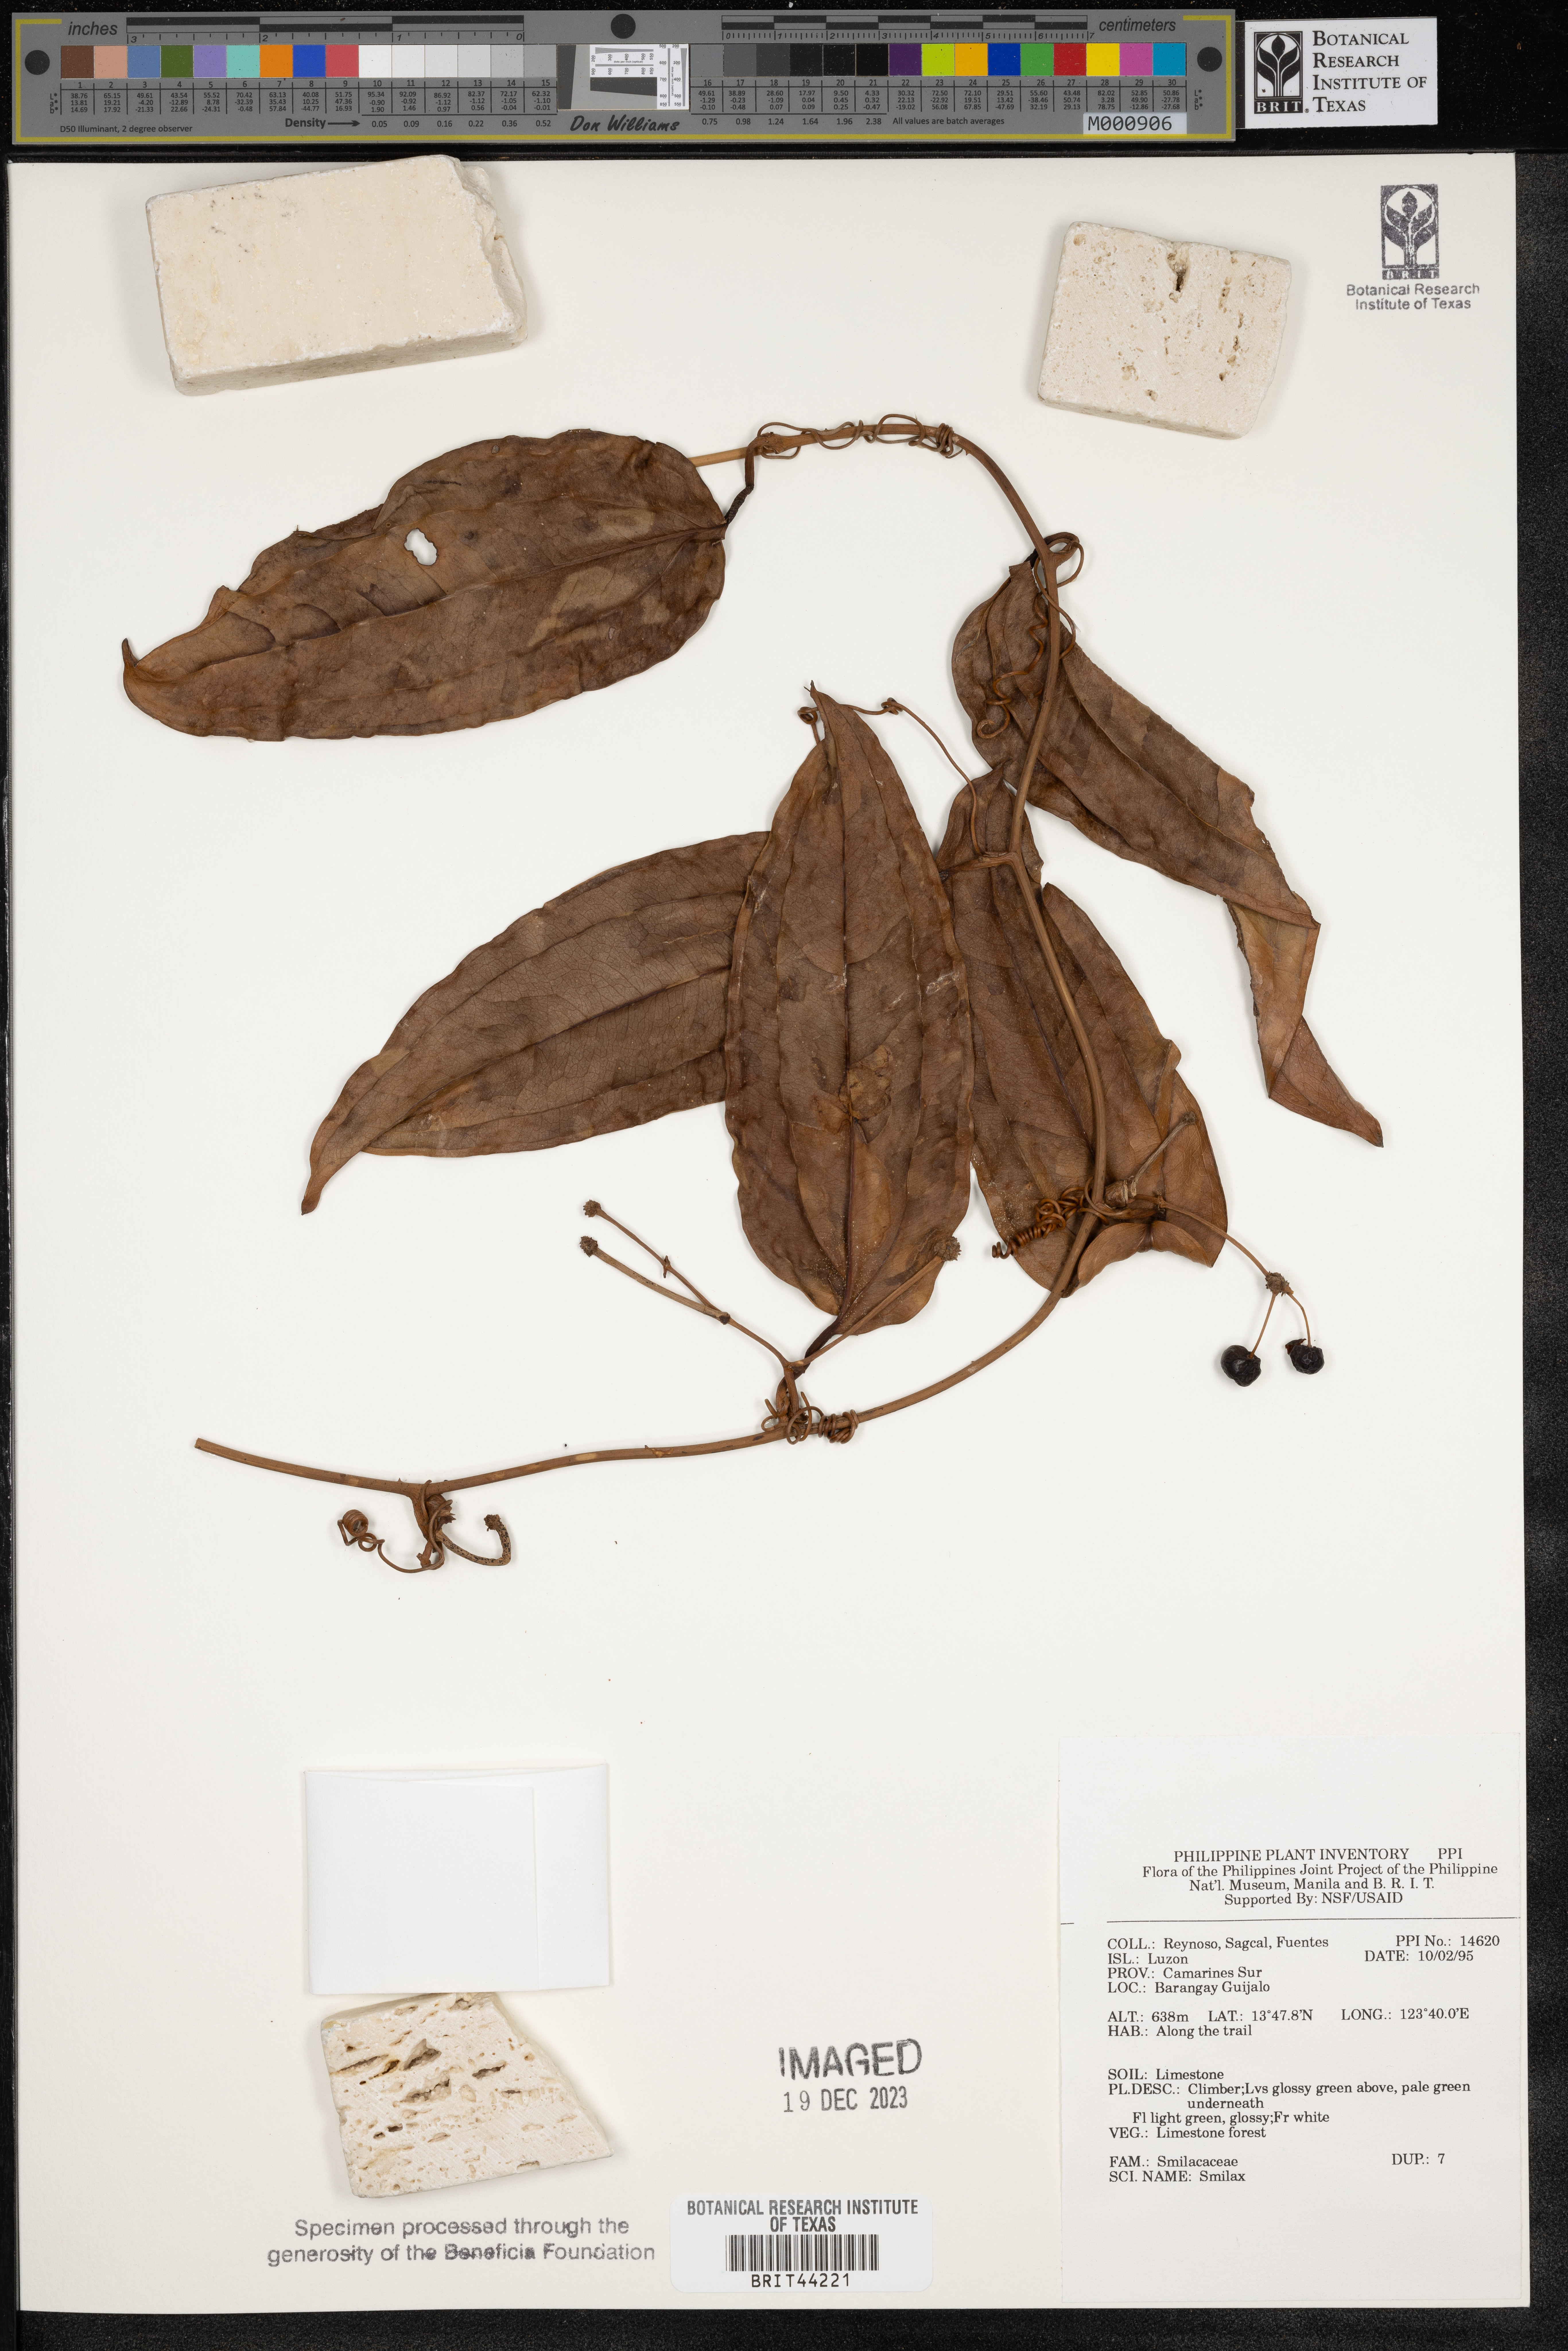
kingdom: Plantae
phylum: Tracheophyta
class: Liliopsida
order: Liliales
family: Smilacaceae
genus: Smilax
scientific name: Smilax
